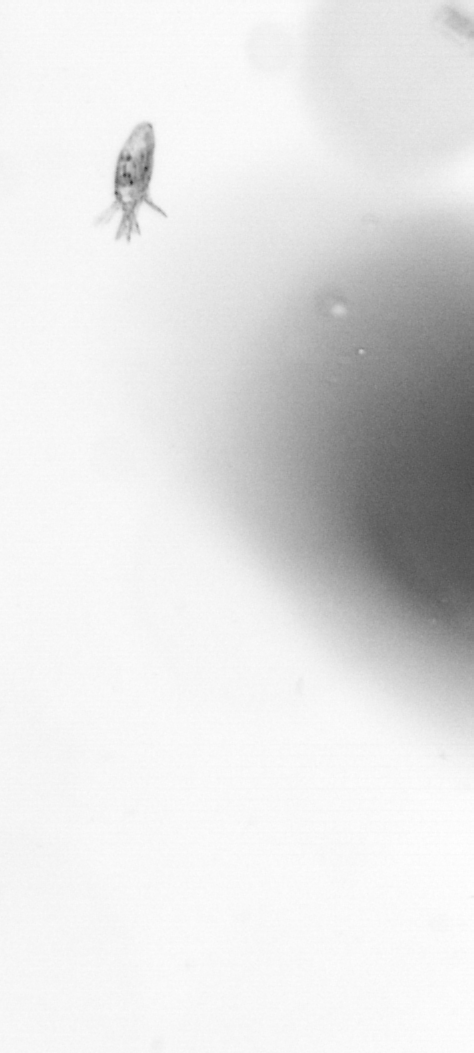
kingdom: Animalia
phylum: Arthropoda
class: Copepoda
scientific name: Copepoda
